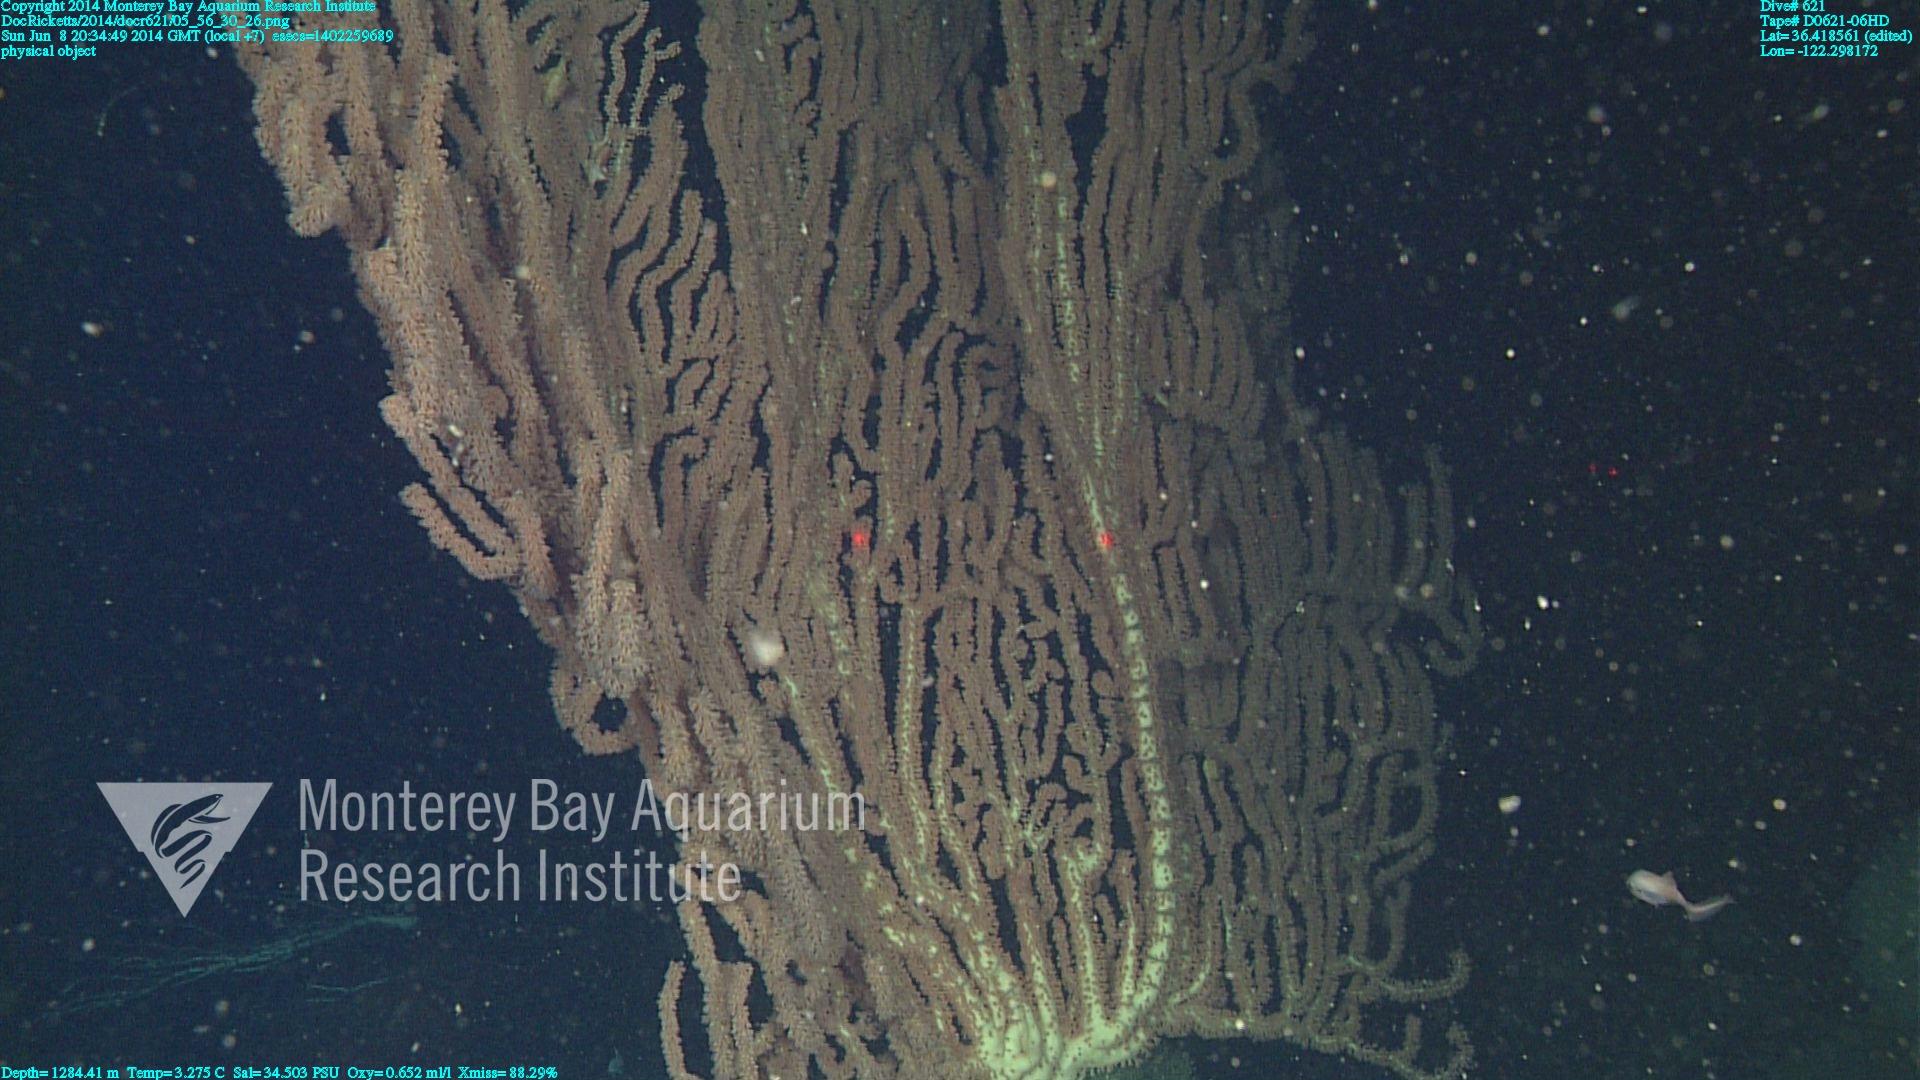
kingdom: Animalia
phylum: Cnidaria
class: Anthozoa
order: Scleralcyonacea
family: Keratoisididae
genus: Keratoisis
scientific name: Keratoisis
